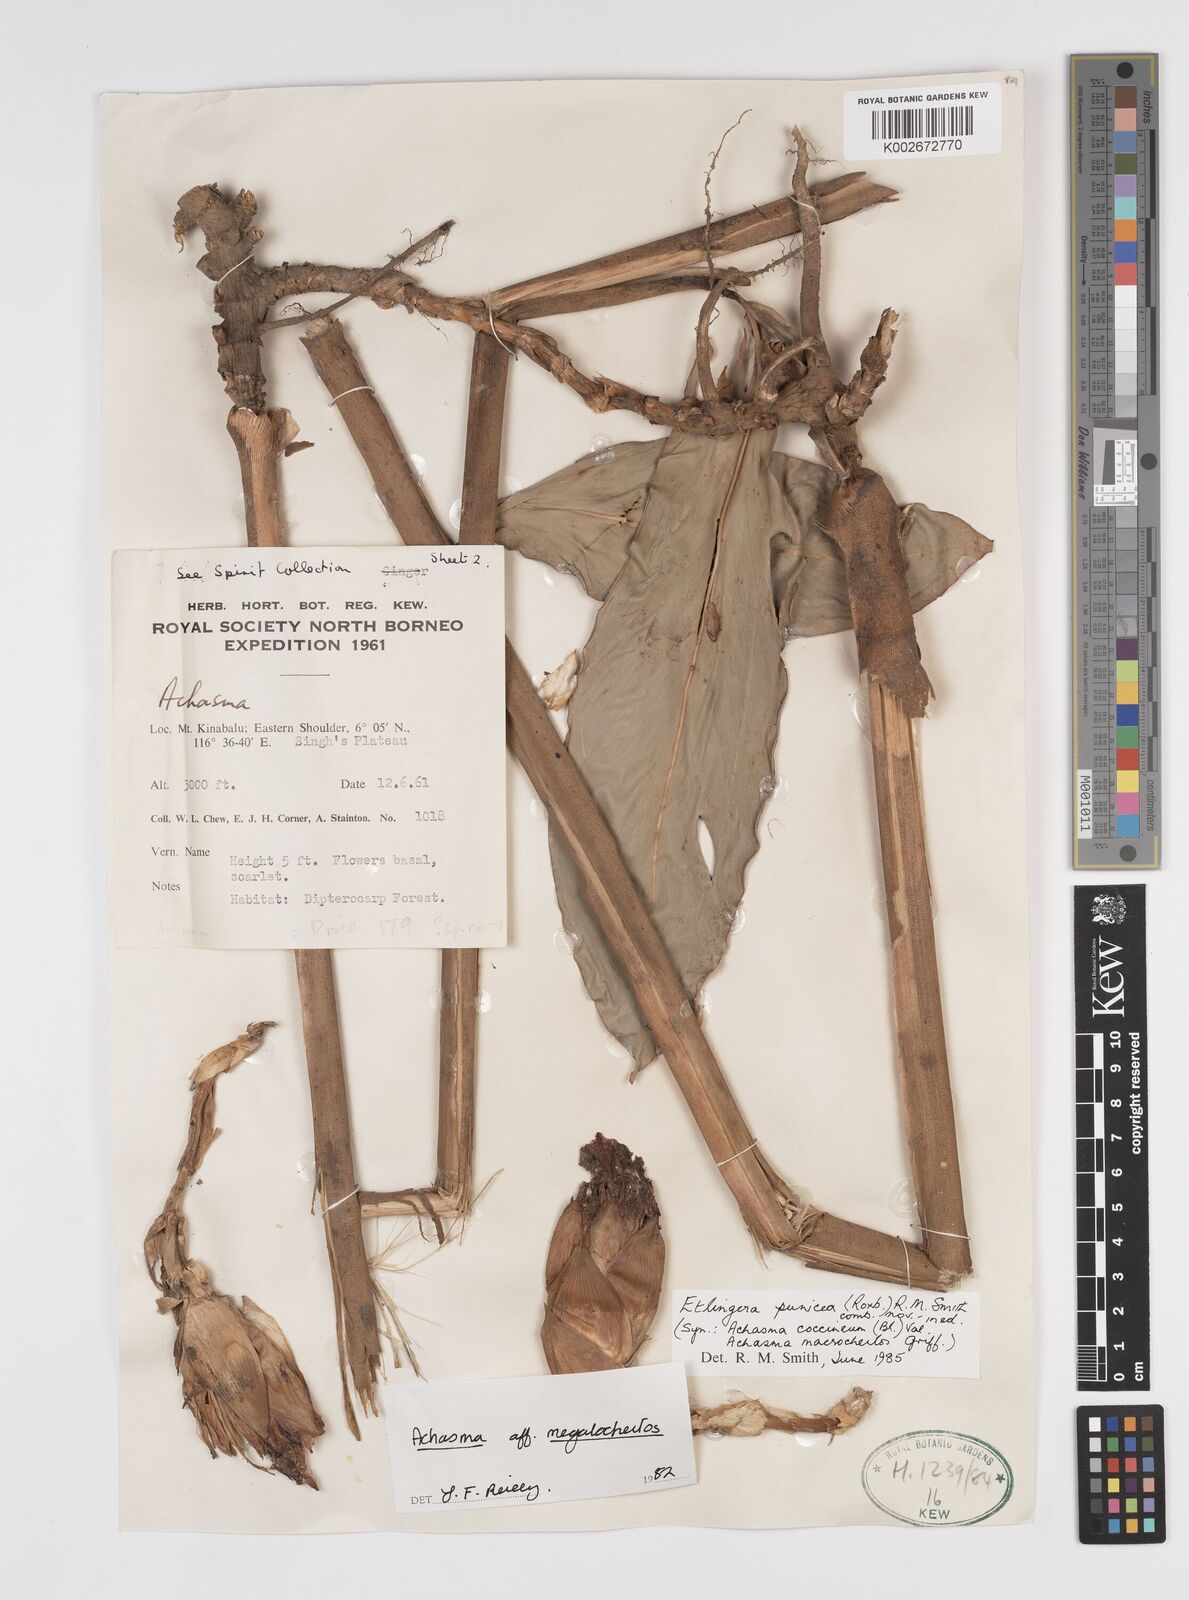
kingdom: Plantae
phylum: Tracheophyta
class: Liliopsida
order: Zingiberales
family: Zingiberaceae
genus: Etlingera
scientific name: Etlingera punicea
